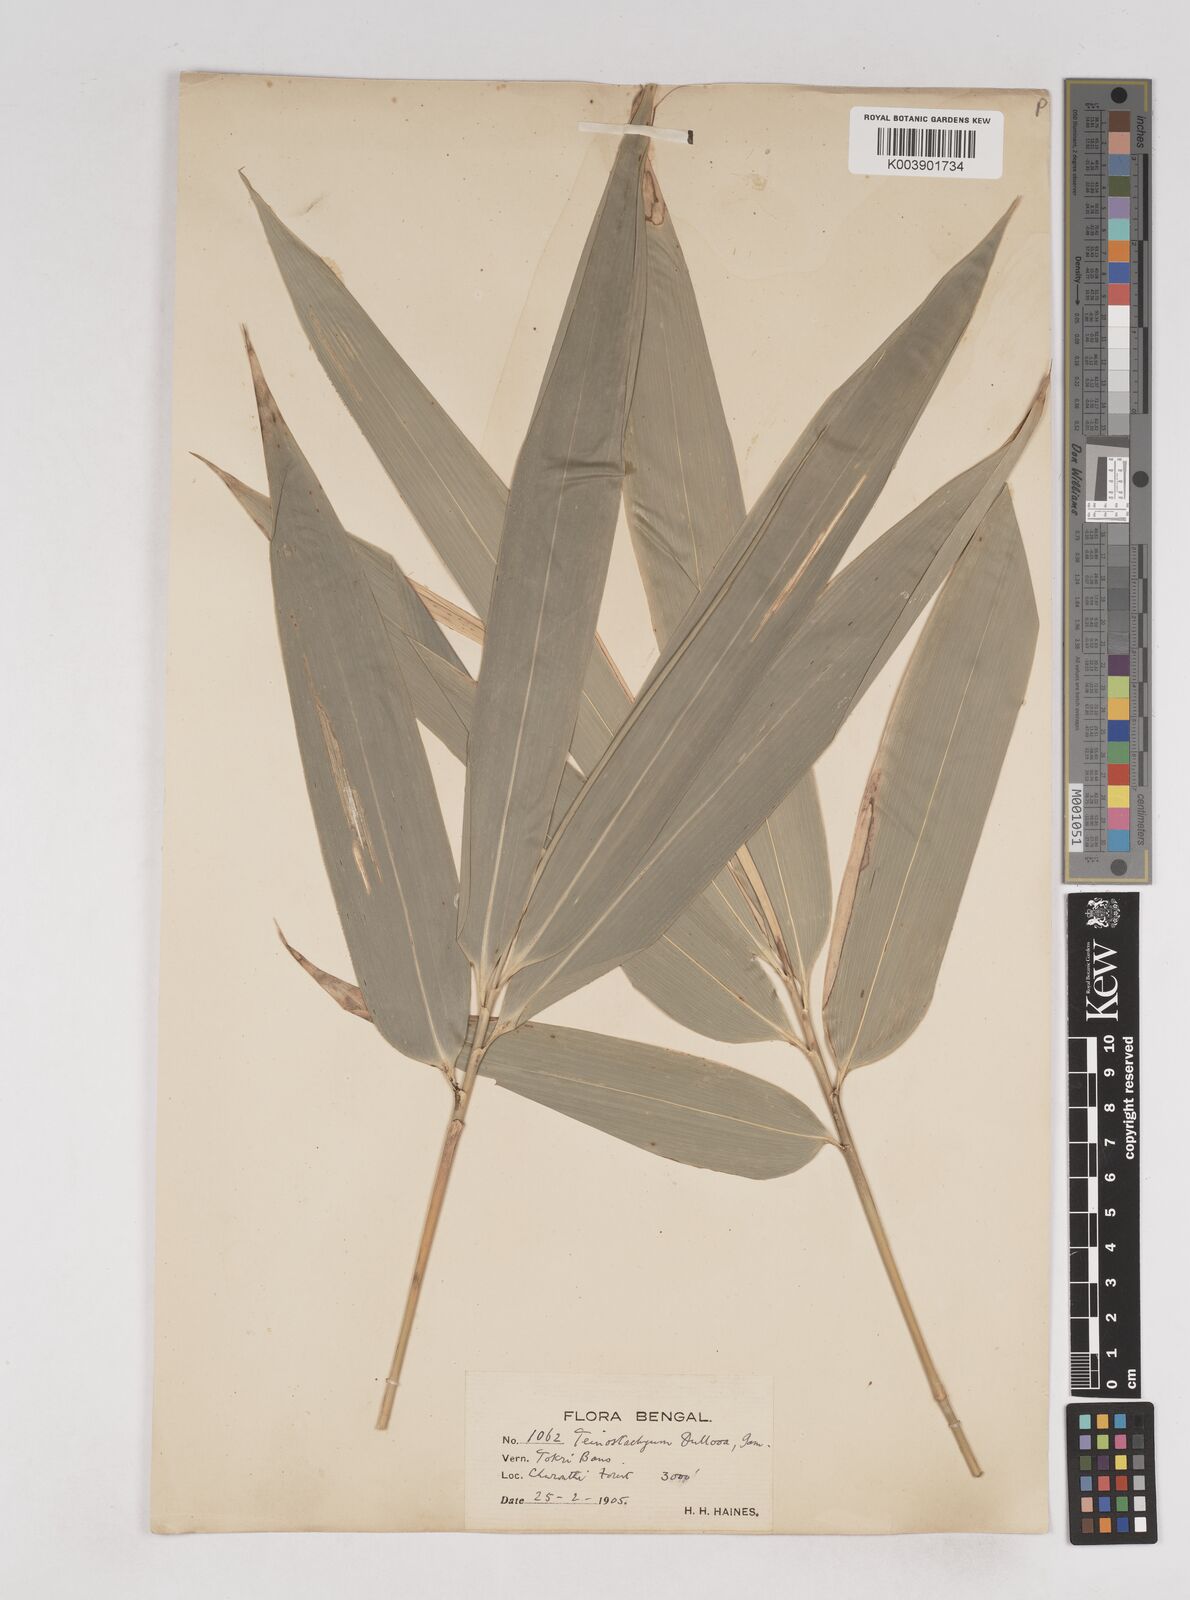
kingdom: Plantae
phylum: Tracheophyta
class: Liliopsida
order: Poales
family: Poaceae
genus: Schizostachyum
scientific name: Schizostachyum dullooa
